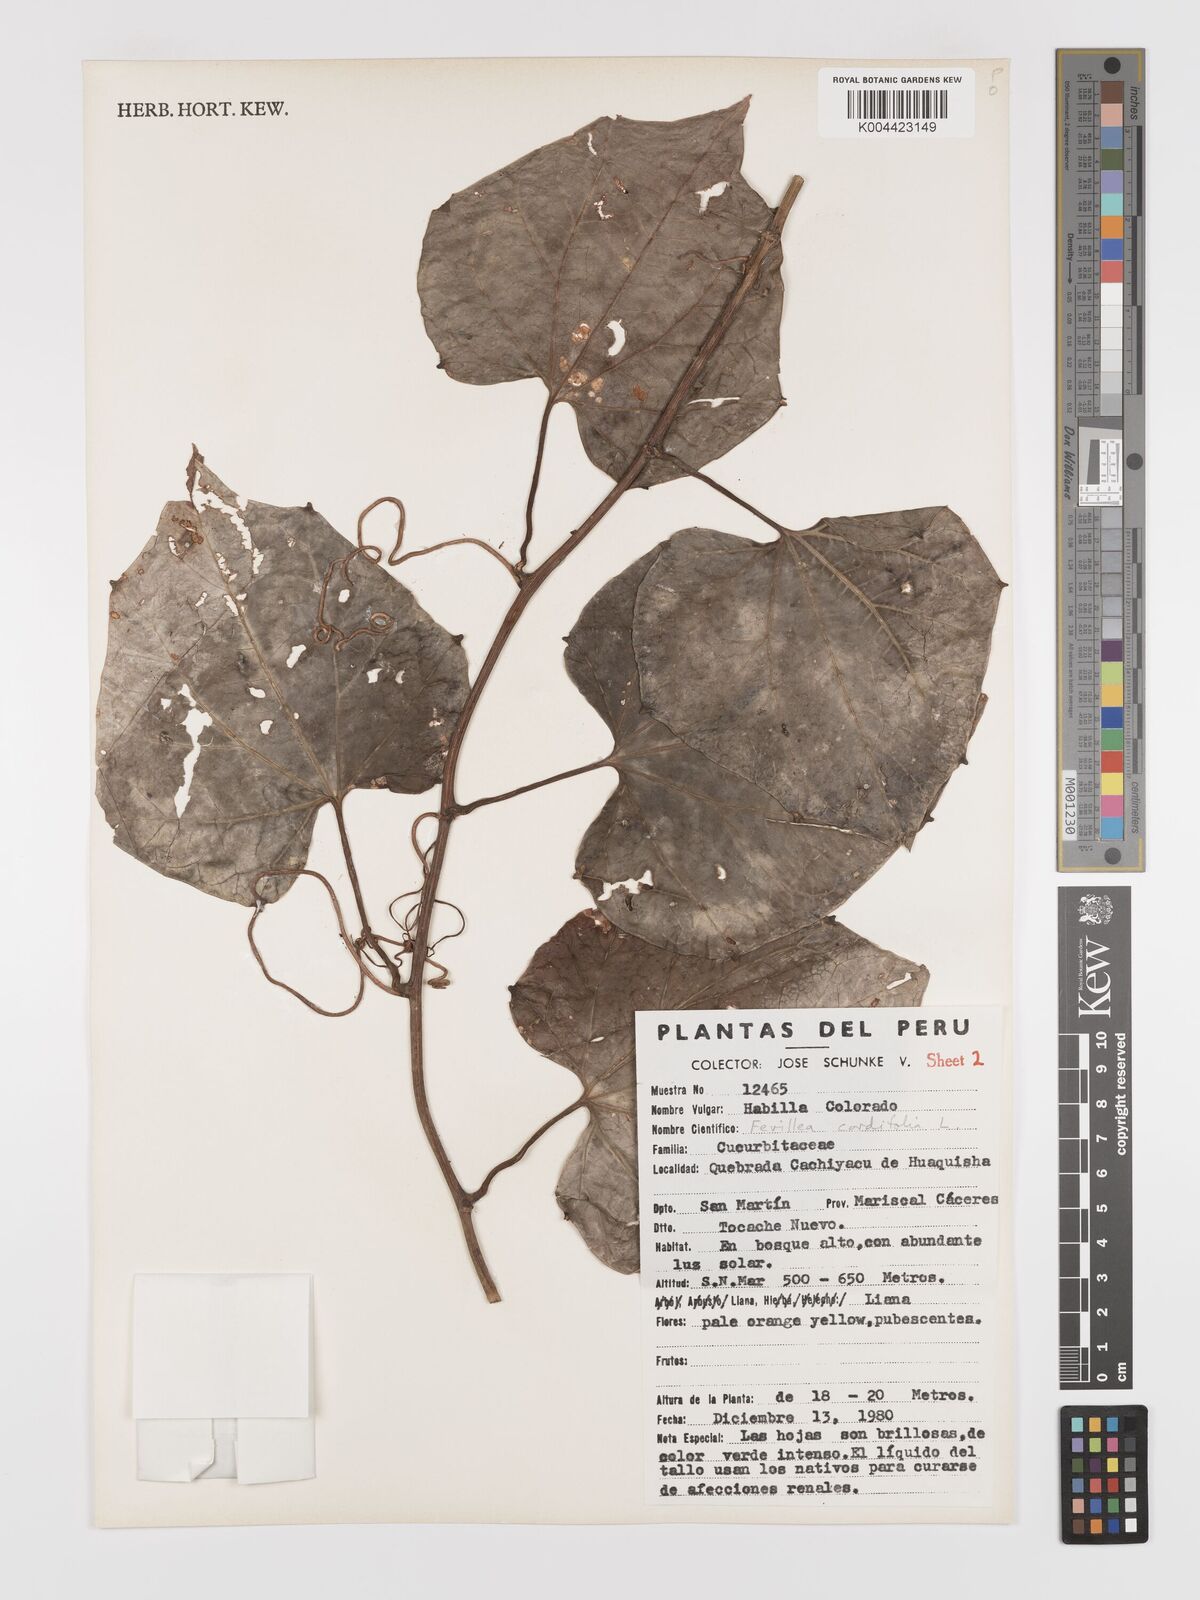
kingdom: Plantae
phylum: Tracheophyta
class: Magnoliopsida
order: Cucurbitales
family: Cucurbitaceae
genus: Fevillea
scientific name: Fevillea
